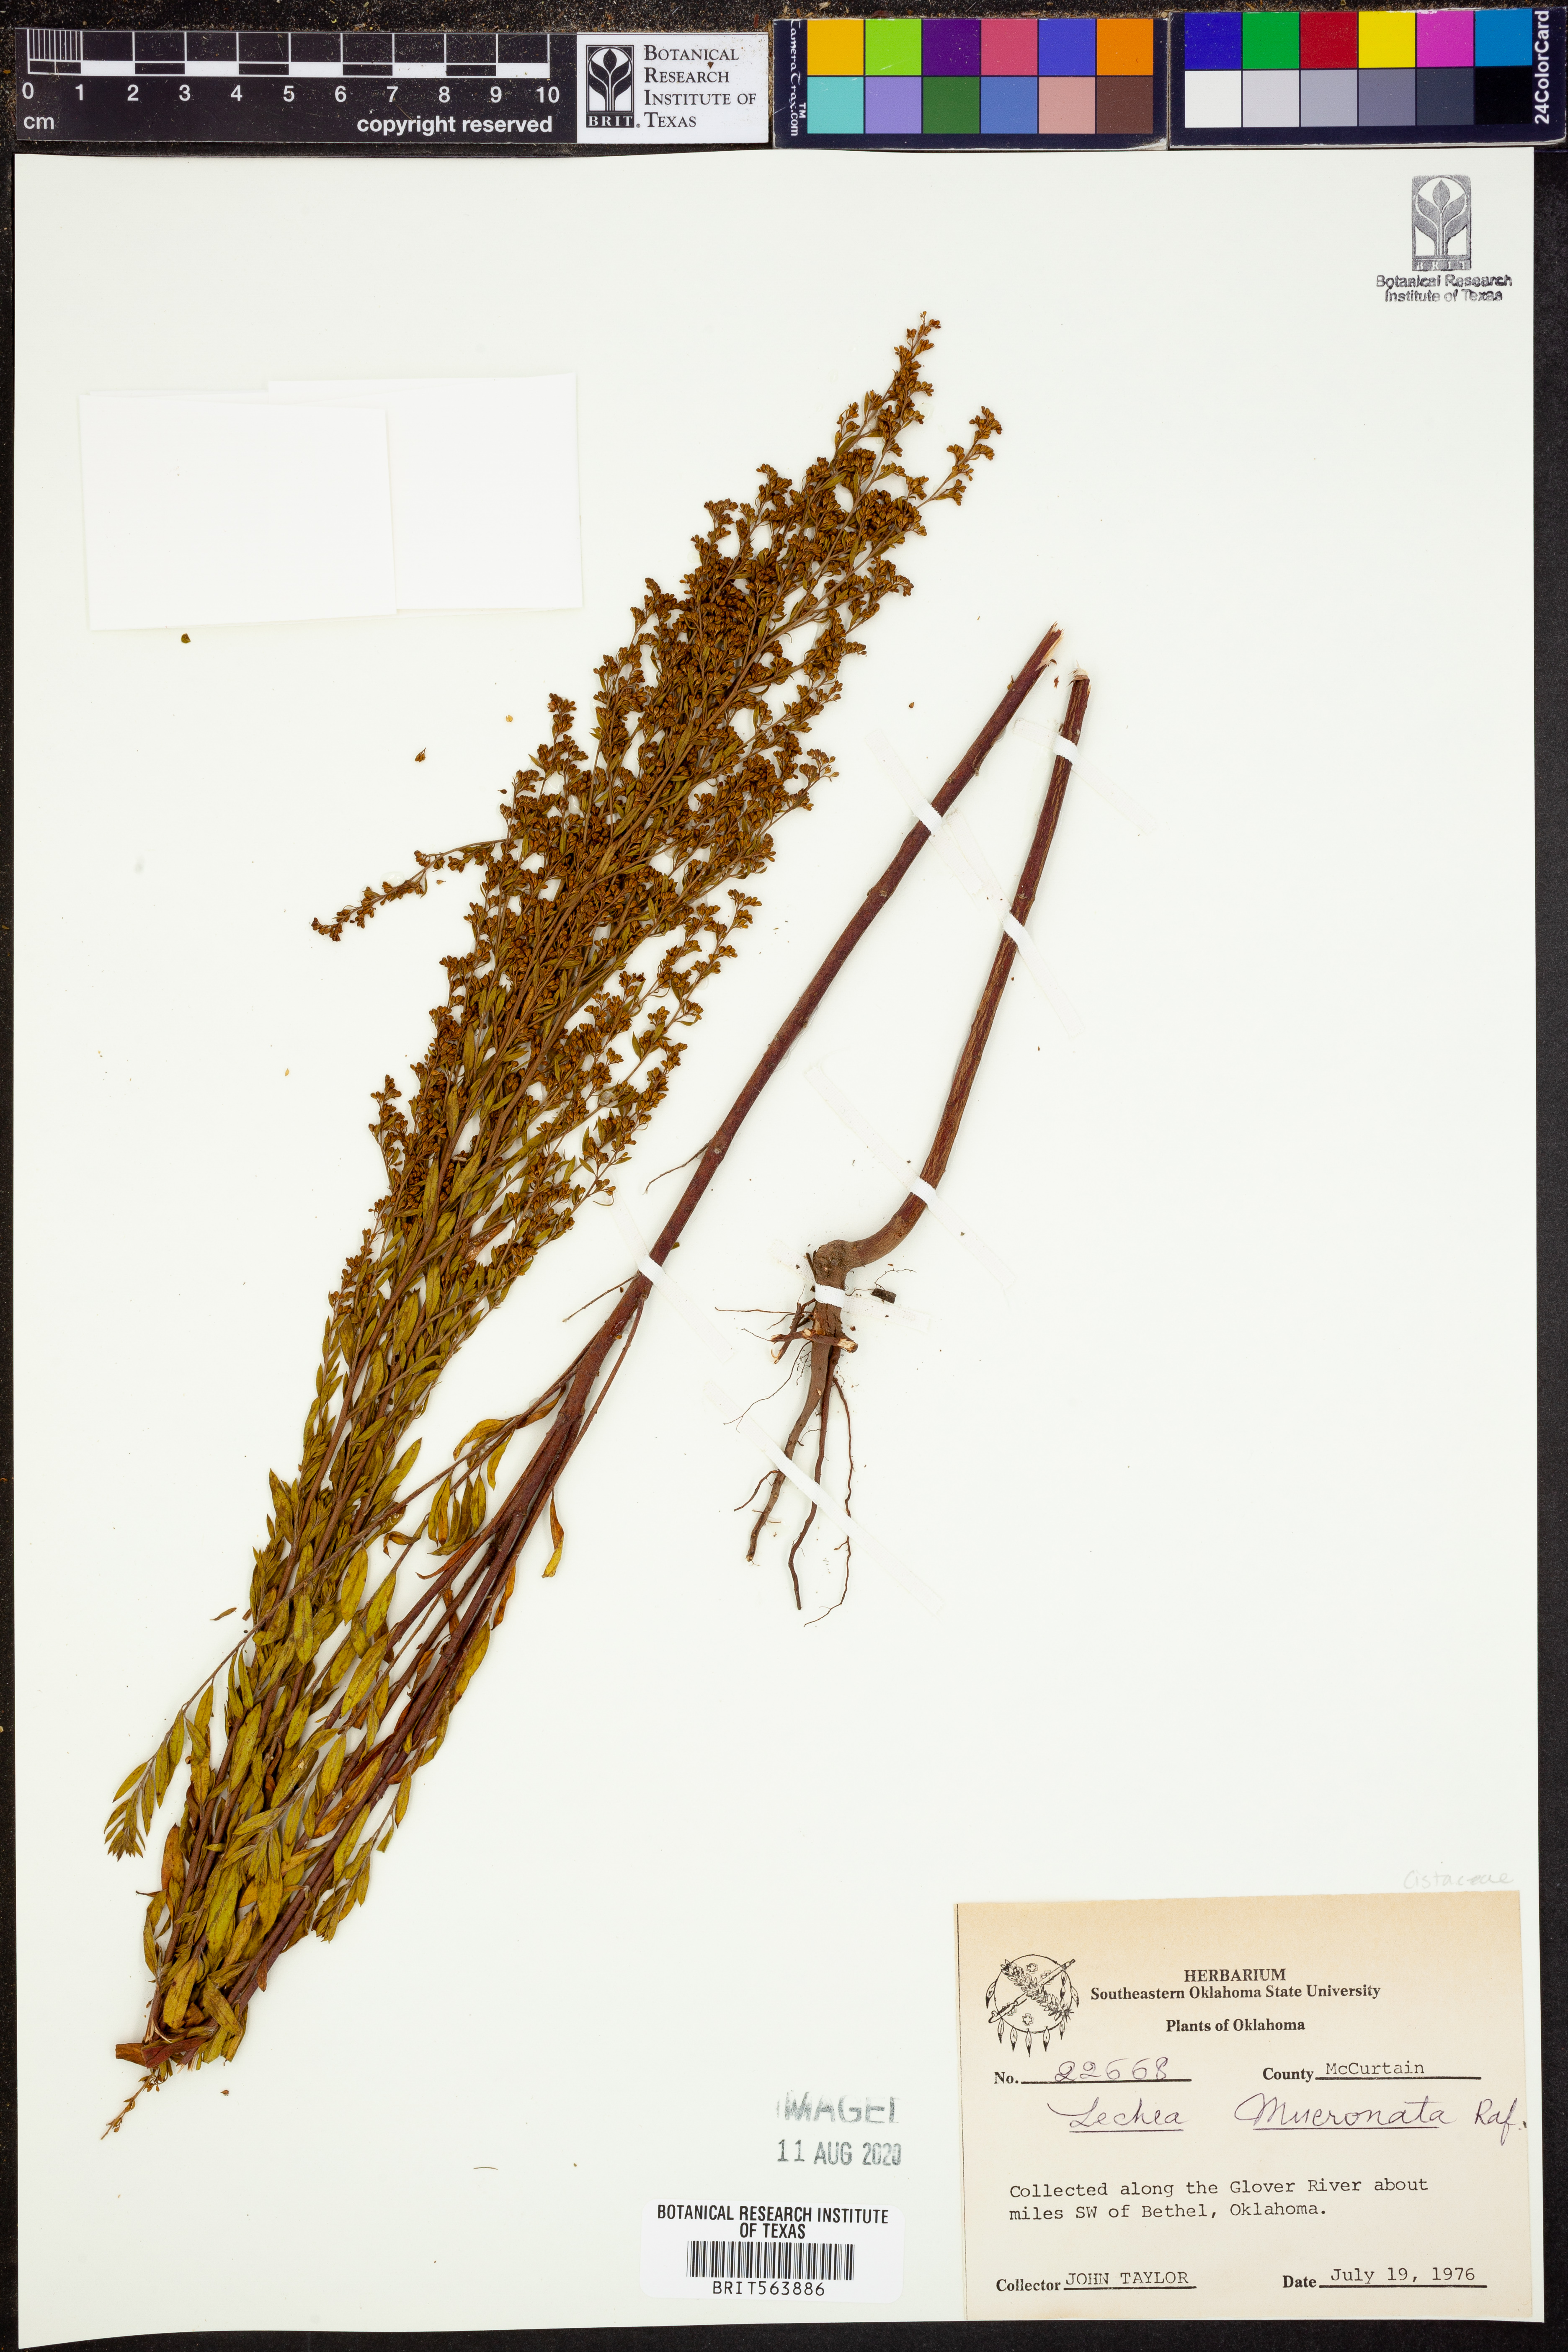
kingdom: Plantae
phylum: Tracheophyta
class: Magnoliopsida
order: Malvales
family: Cistaceae
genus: Lechea
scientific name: Lechea mucronata
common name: Hairy pinweed
